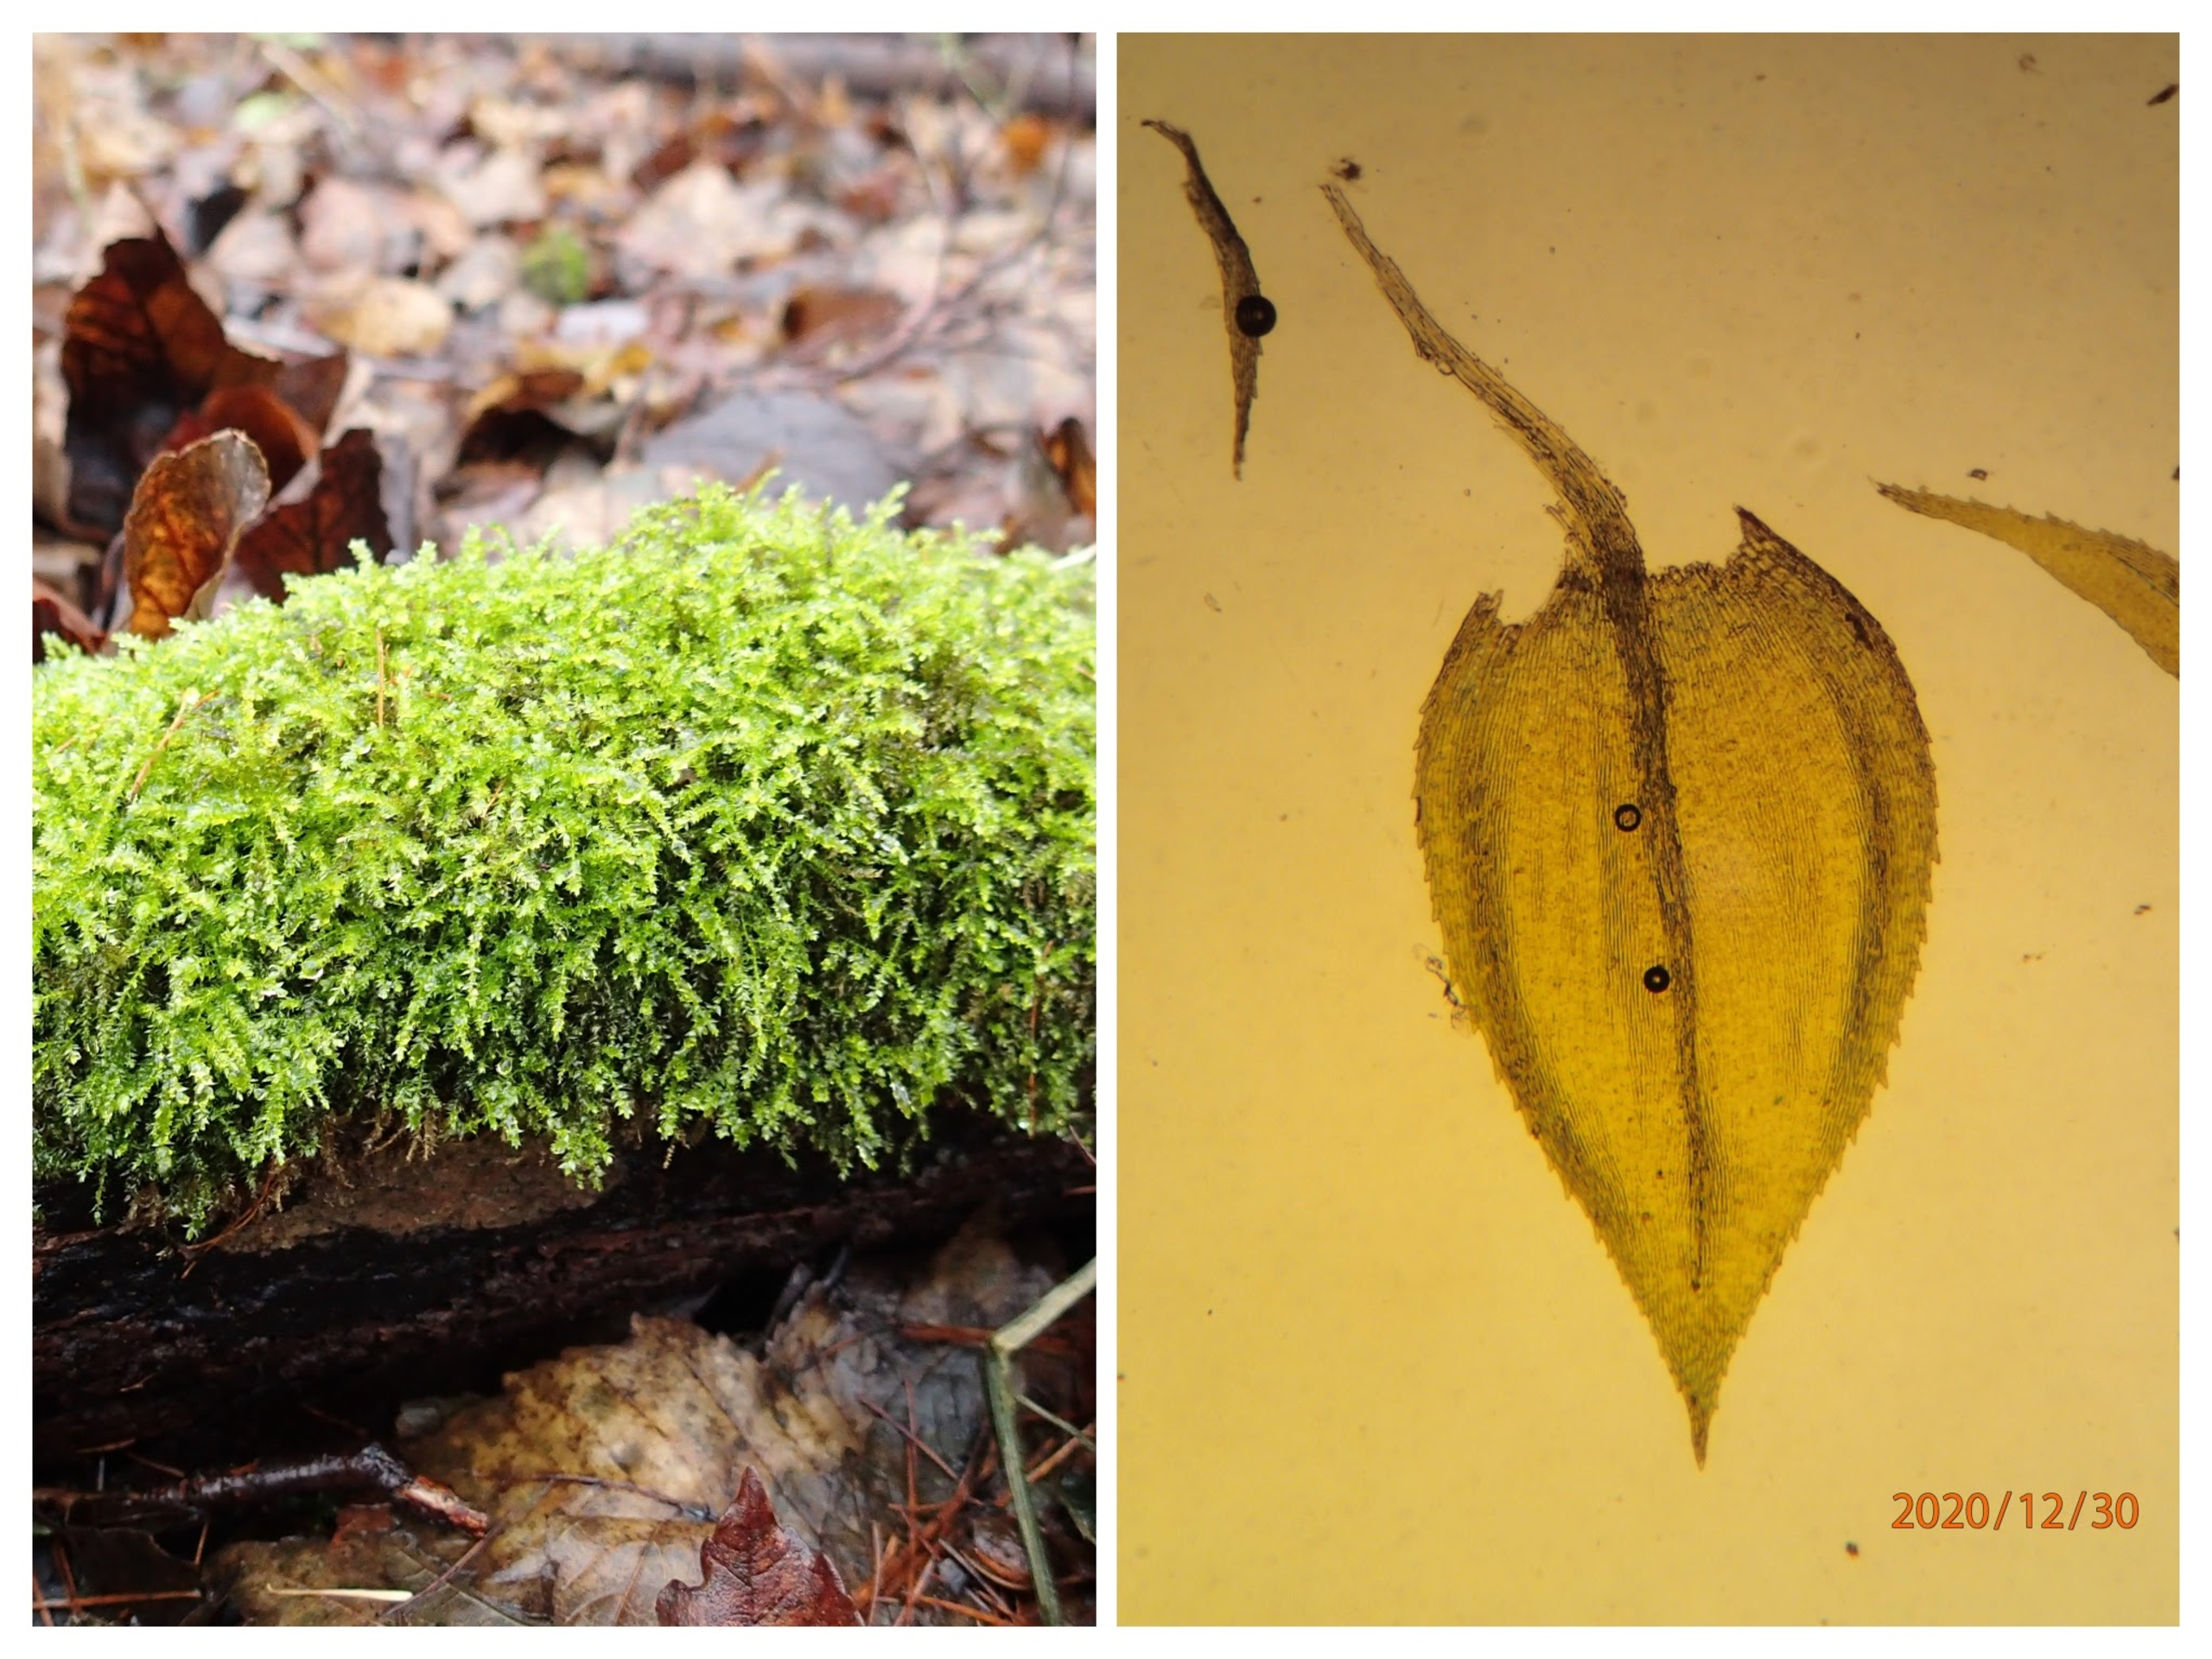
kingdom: Plantae
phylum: Bryophyta
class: Bryopsida
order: Hypnales
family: Brachytheciaceae
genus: Oxyrrhynchium
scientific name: Oxyrrhynchium hians
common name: Ler-vortetand
